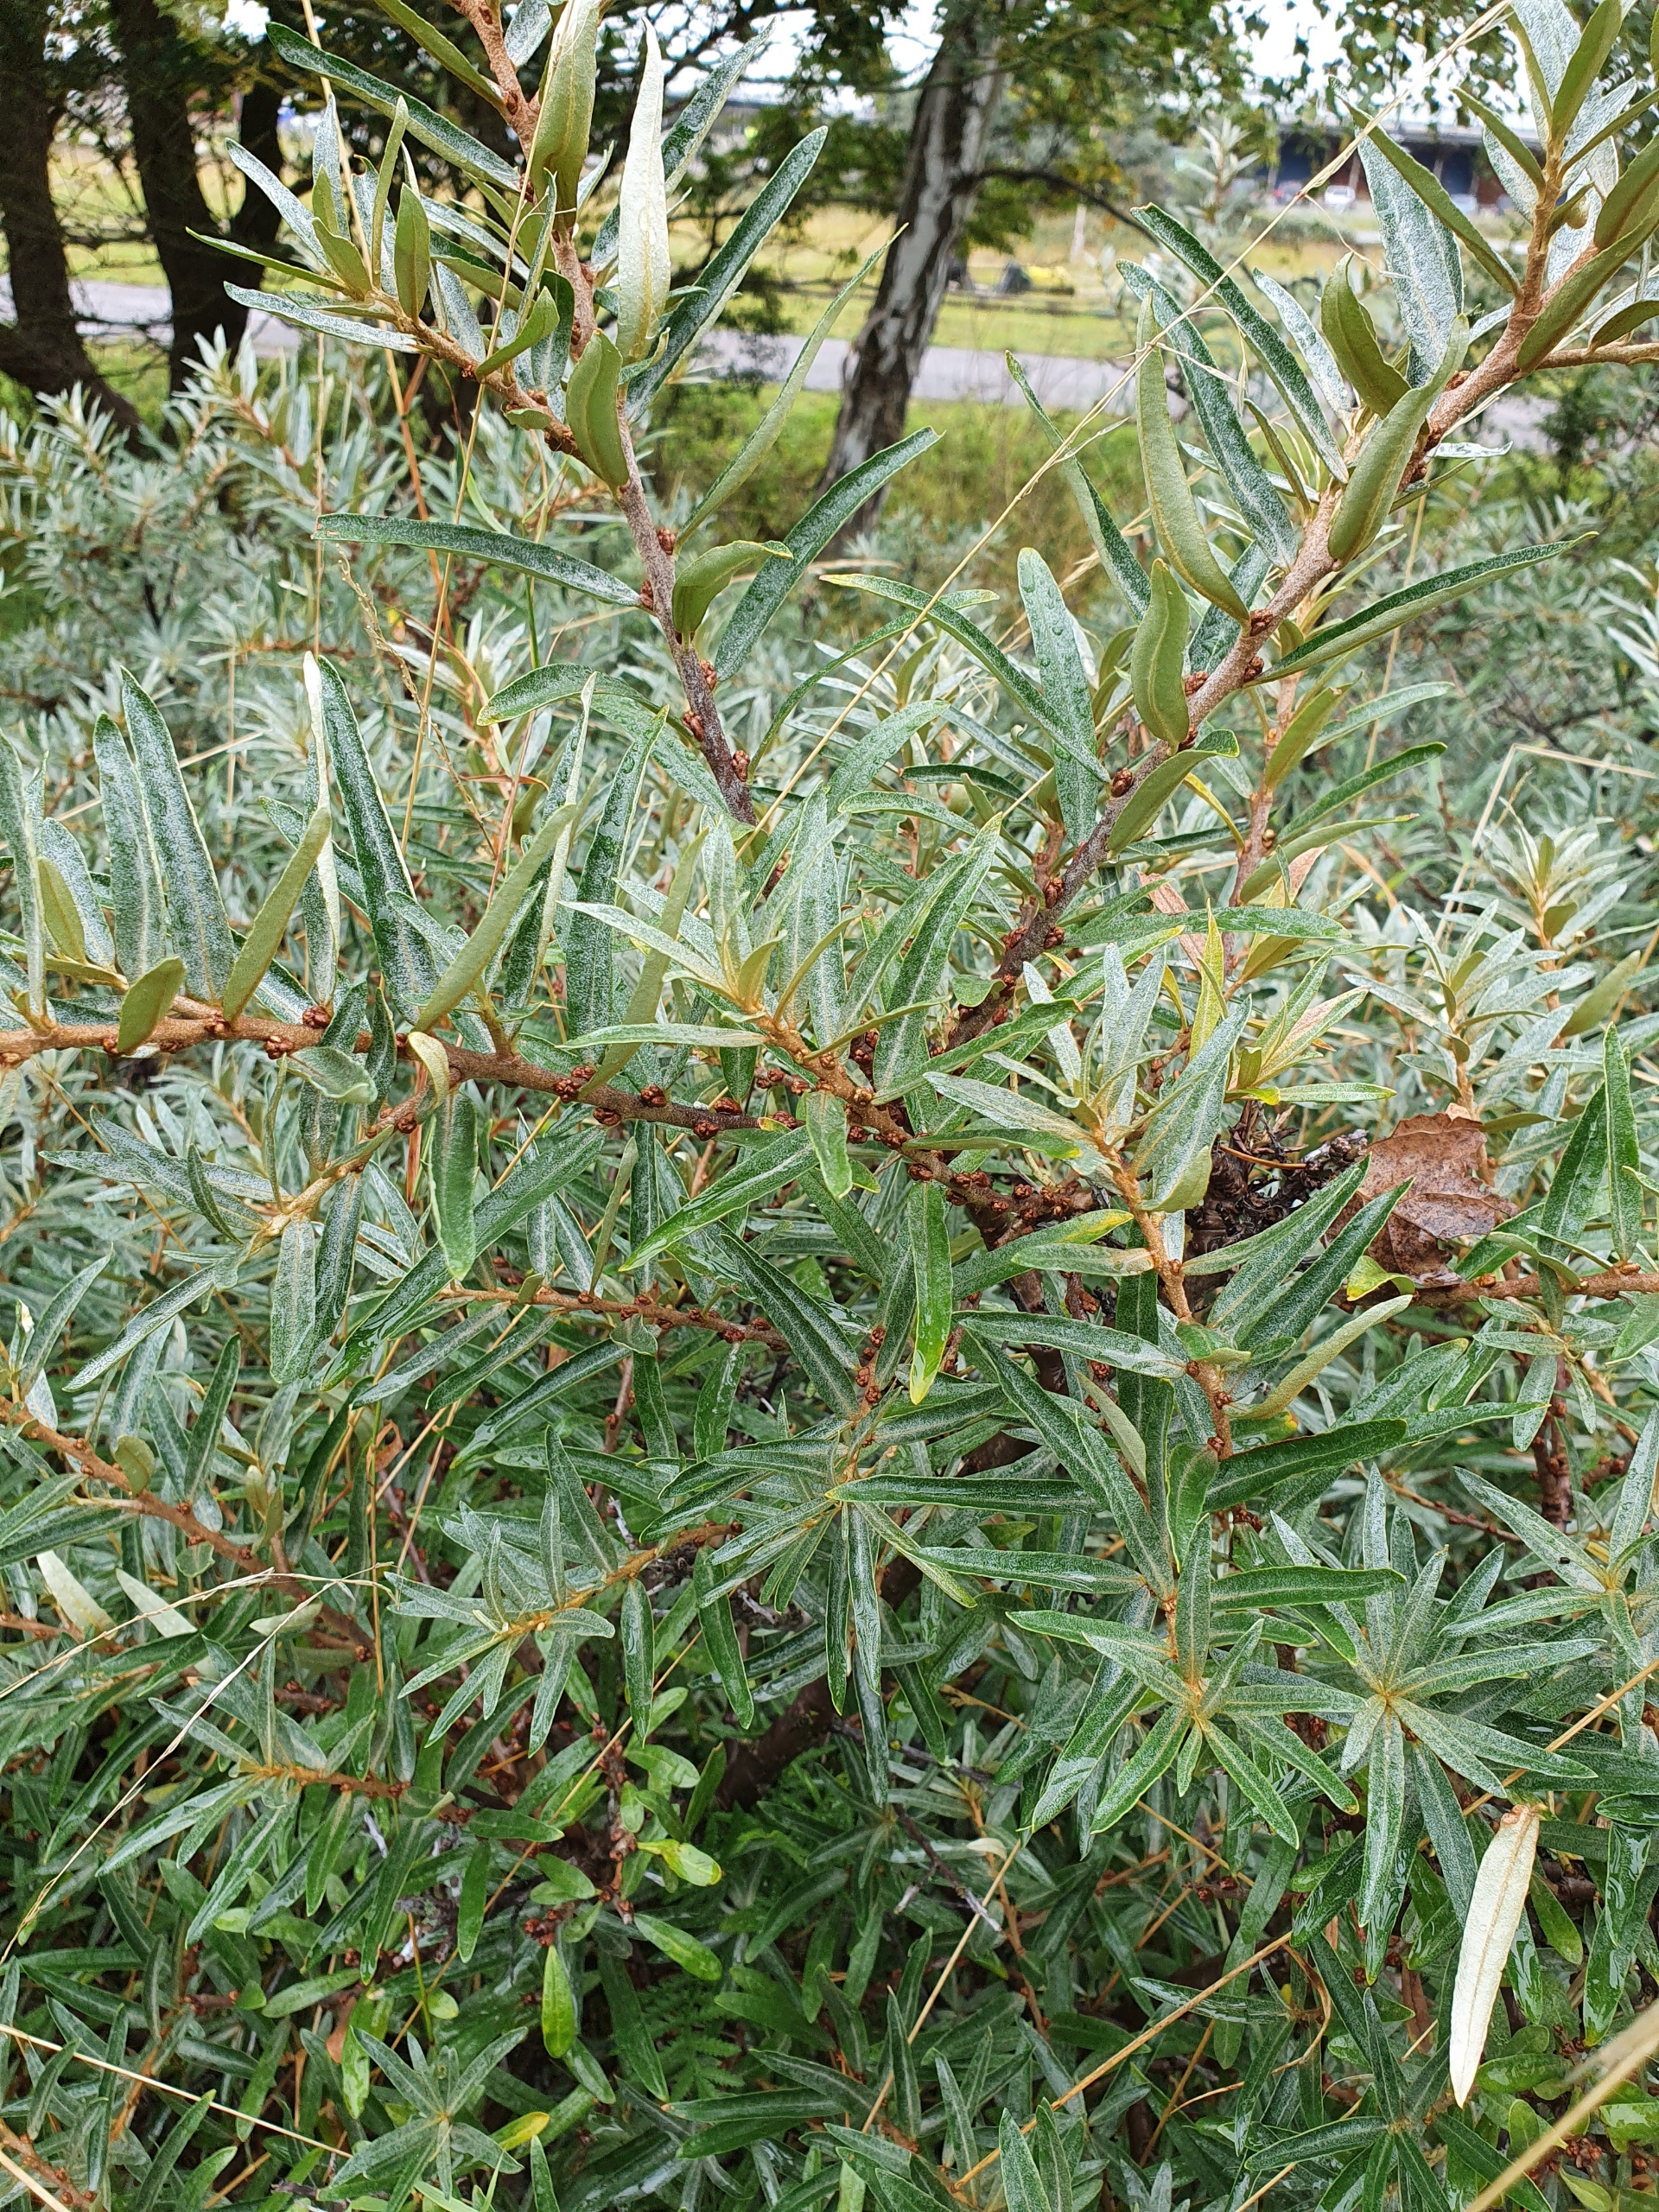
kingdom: Plantae
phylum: Tracheophyta
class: Magnoliopsida
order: Rosales
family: Elaeagnaceae
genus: Hippophae
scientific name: Hippophae rhamnoides
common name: Havtorn
